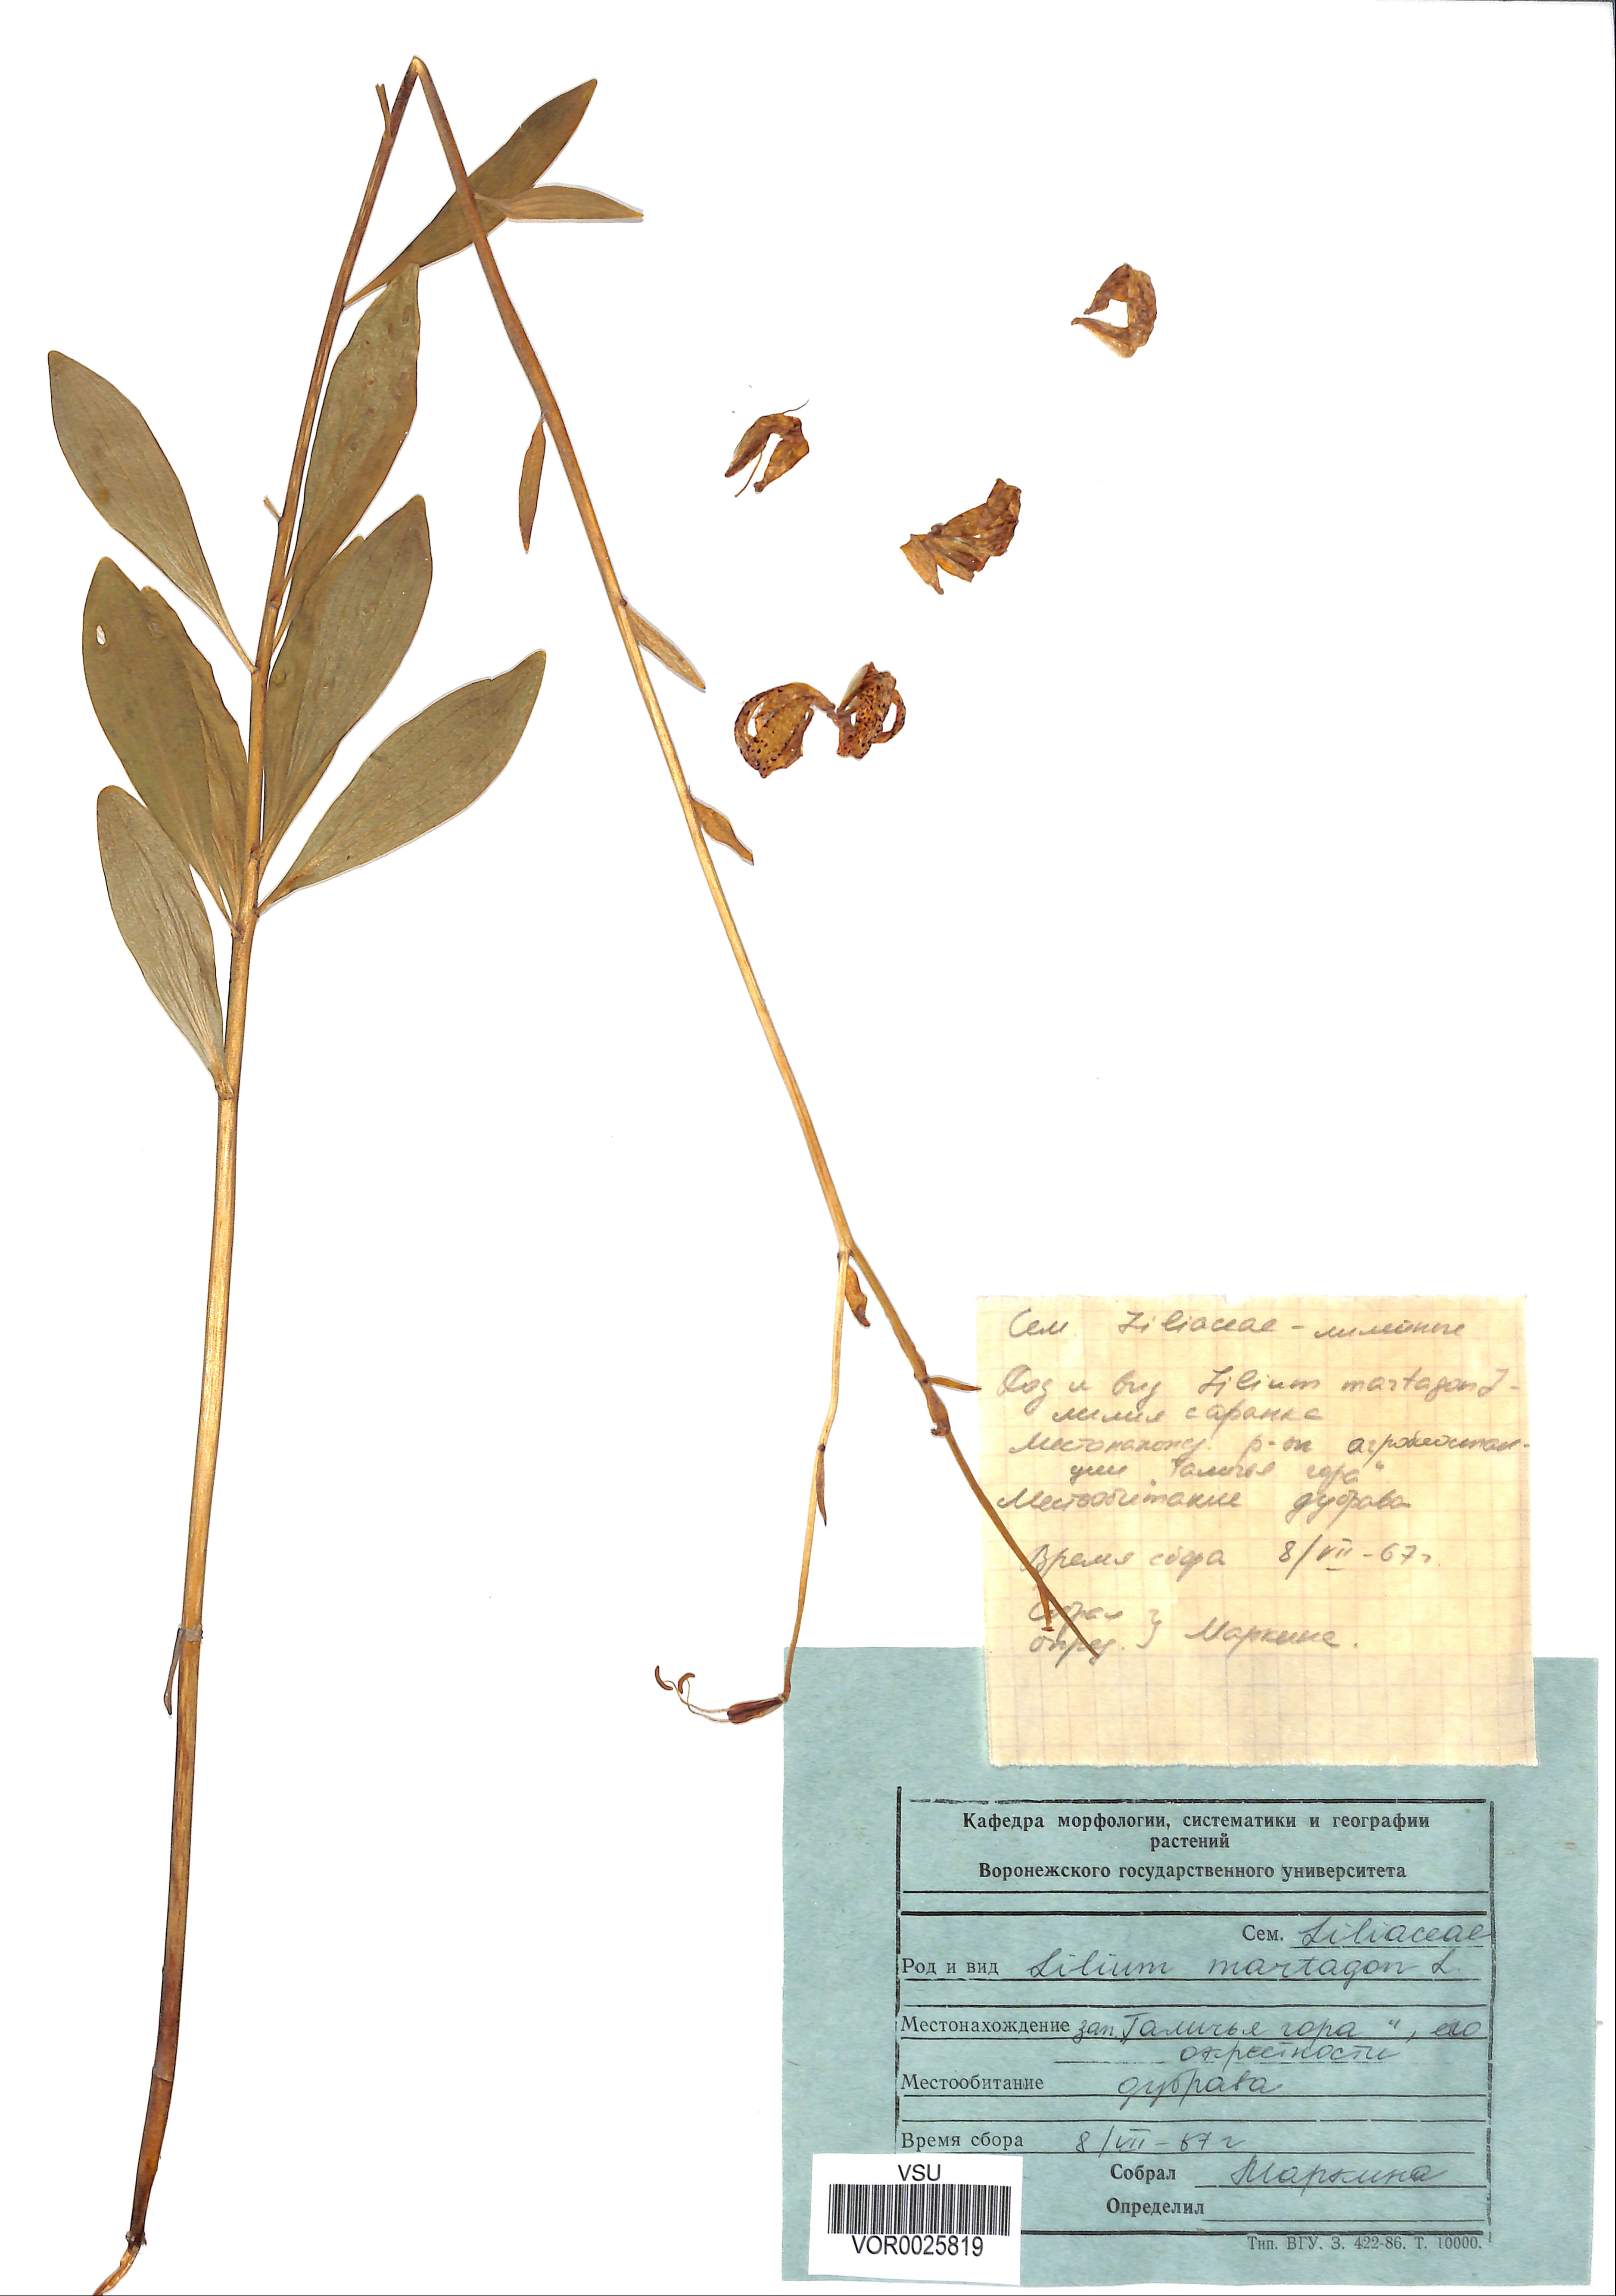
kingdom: Plantae
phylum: Tracheophyta
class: Liliopsida
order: Liliales
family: Liliaceae
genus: Lilium
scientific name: Lilium martagon
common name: Martagon lily
